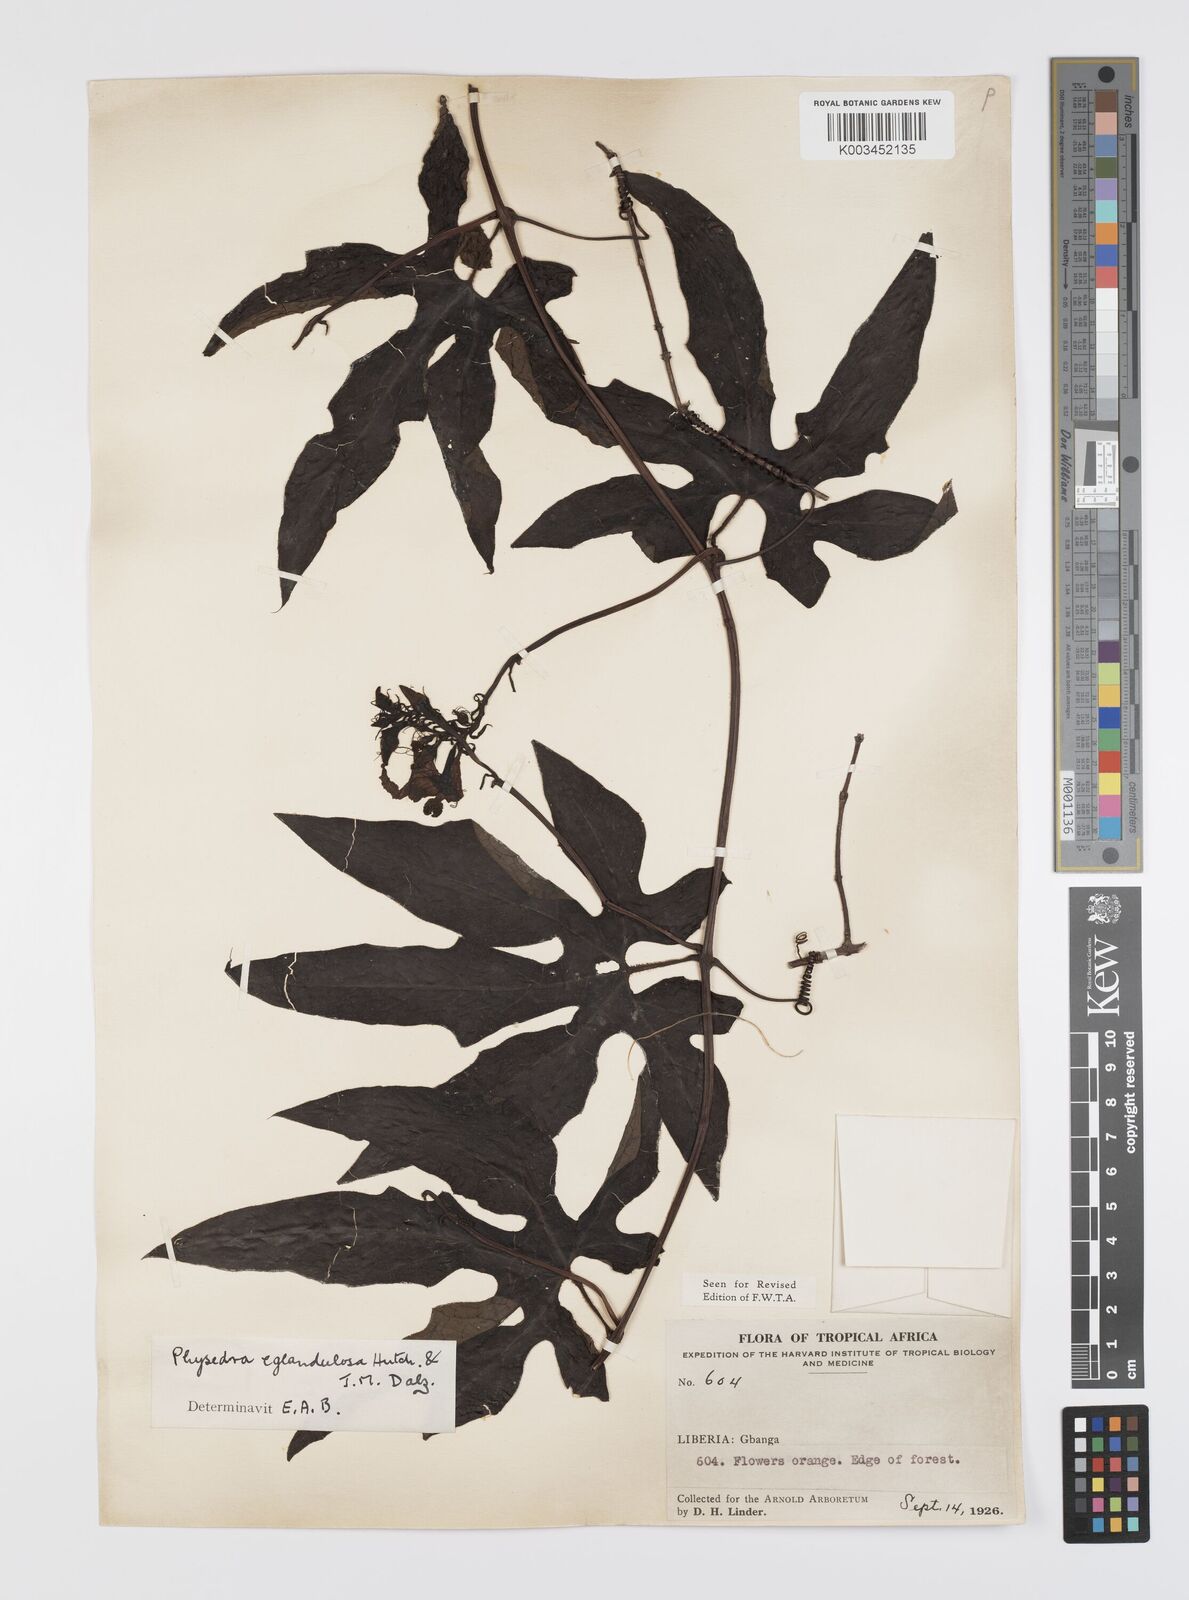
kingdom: Plantae
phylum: Tracheophyta
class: Magnoliopsida
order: Cucurbitales
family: Cucurbitaceae
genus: Ruthalicia
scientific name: Ruthalicia eglandulosa
